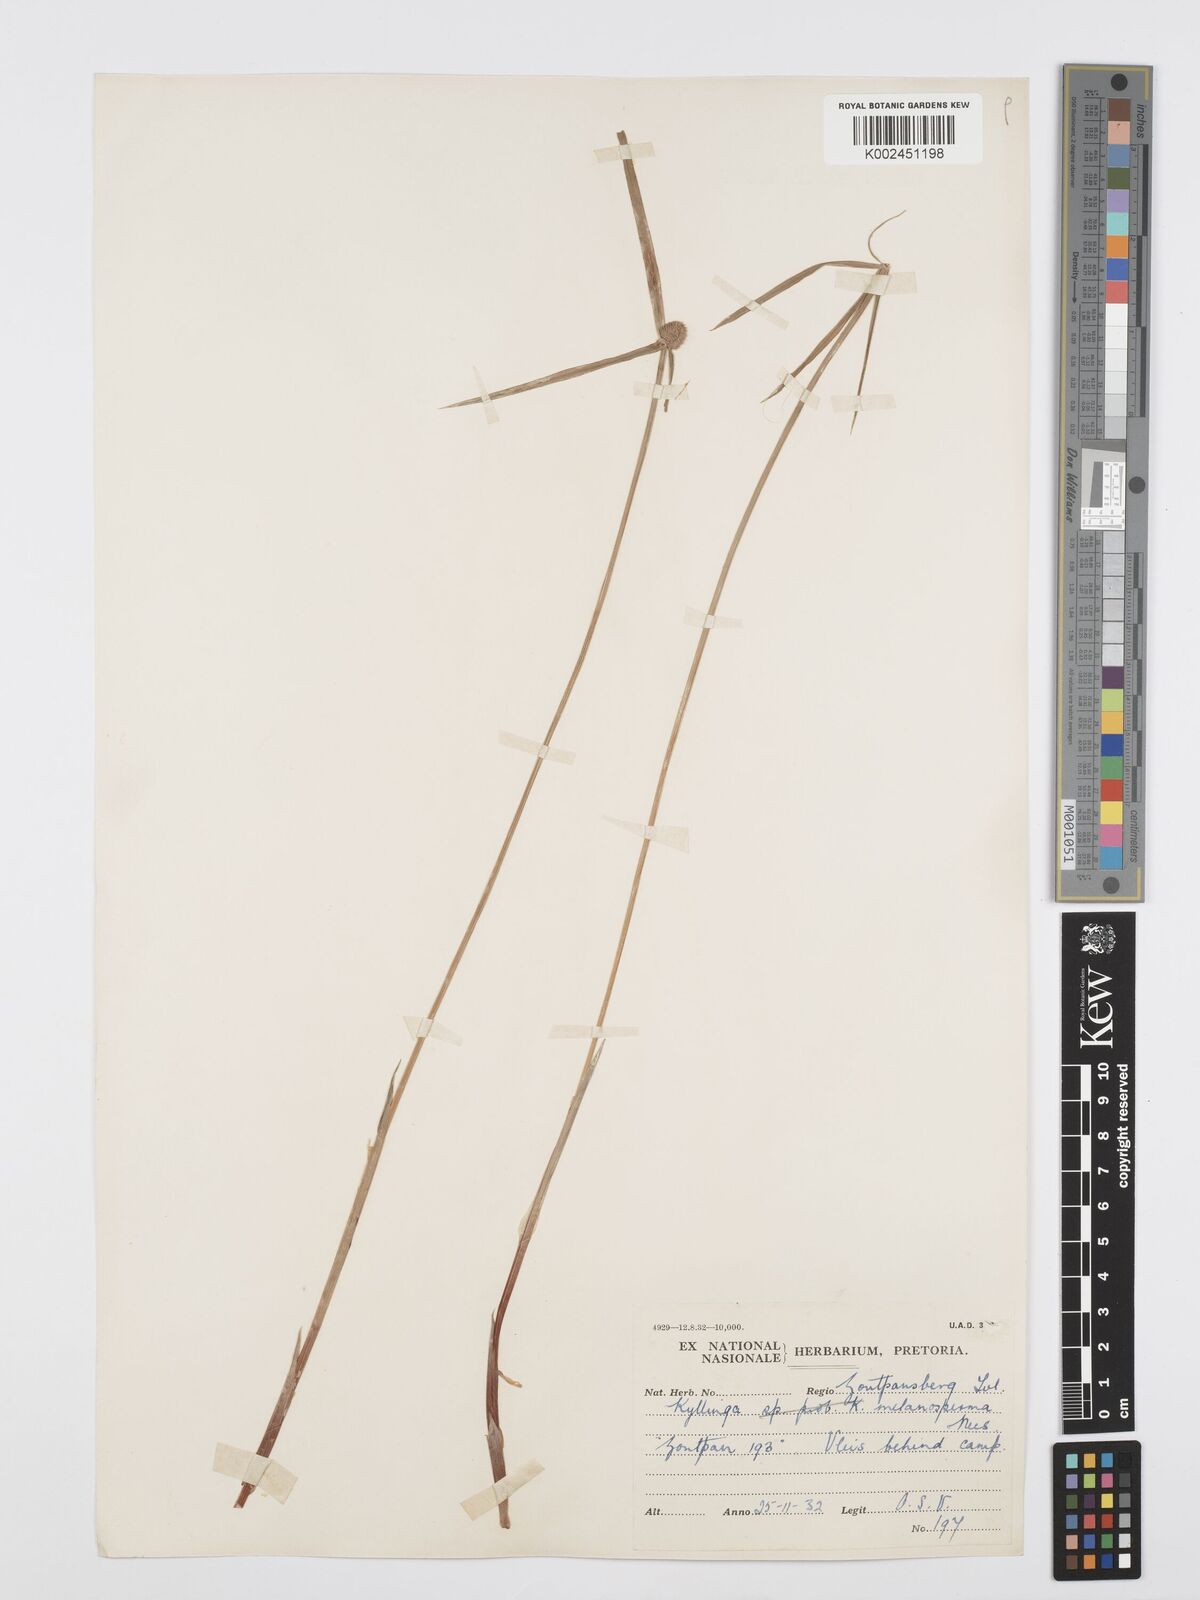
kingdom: Plantae
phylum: Tracheophyta
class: Liliopsida
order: Poales
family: Cyperaceae
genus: Cyperus
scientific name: Cyperus melanospermus
